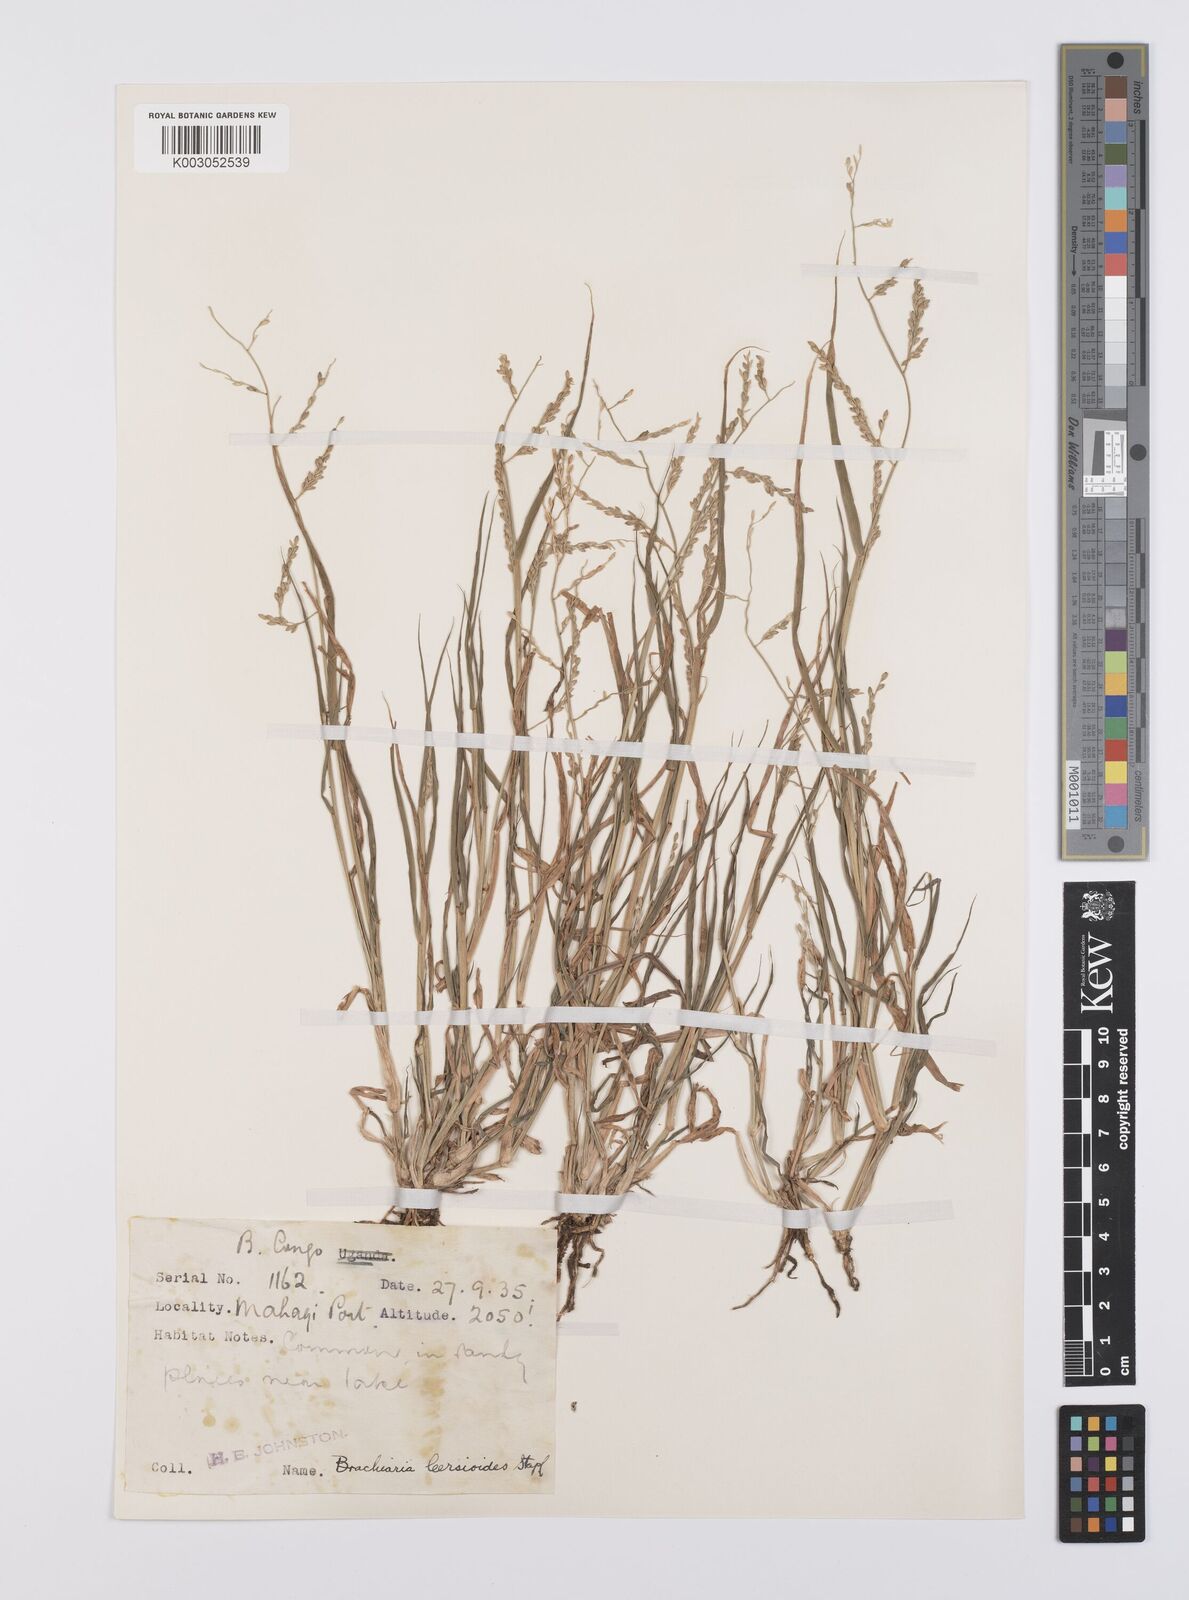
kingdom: Plantae
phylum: Tracheophyta
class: Liliopsida
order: Poales
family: Poaceae
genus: Urochloa
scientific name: Urochloa leersioides
